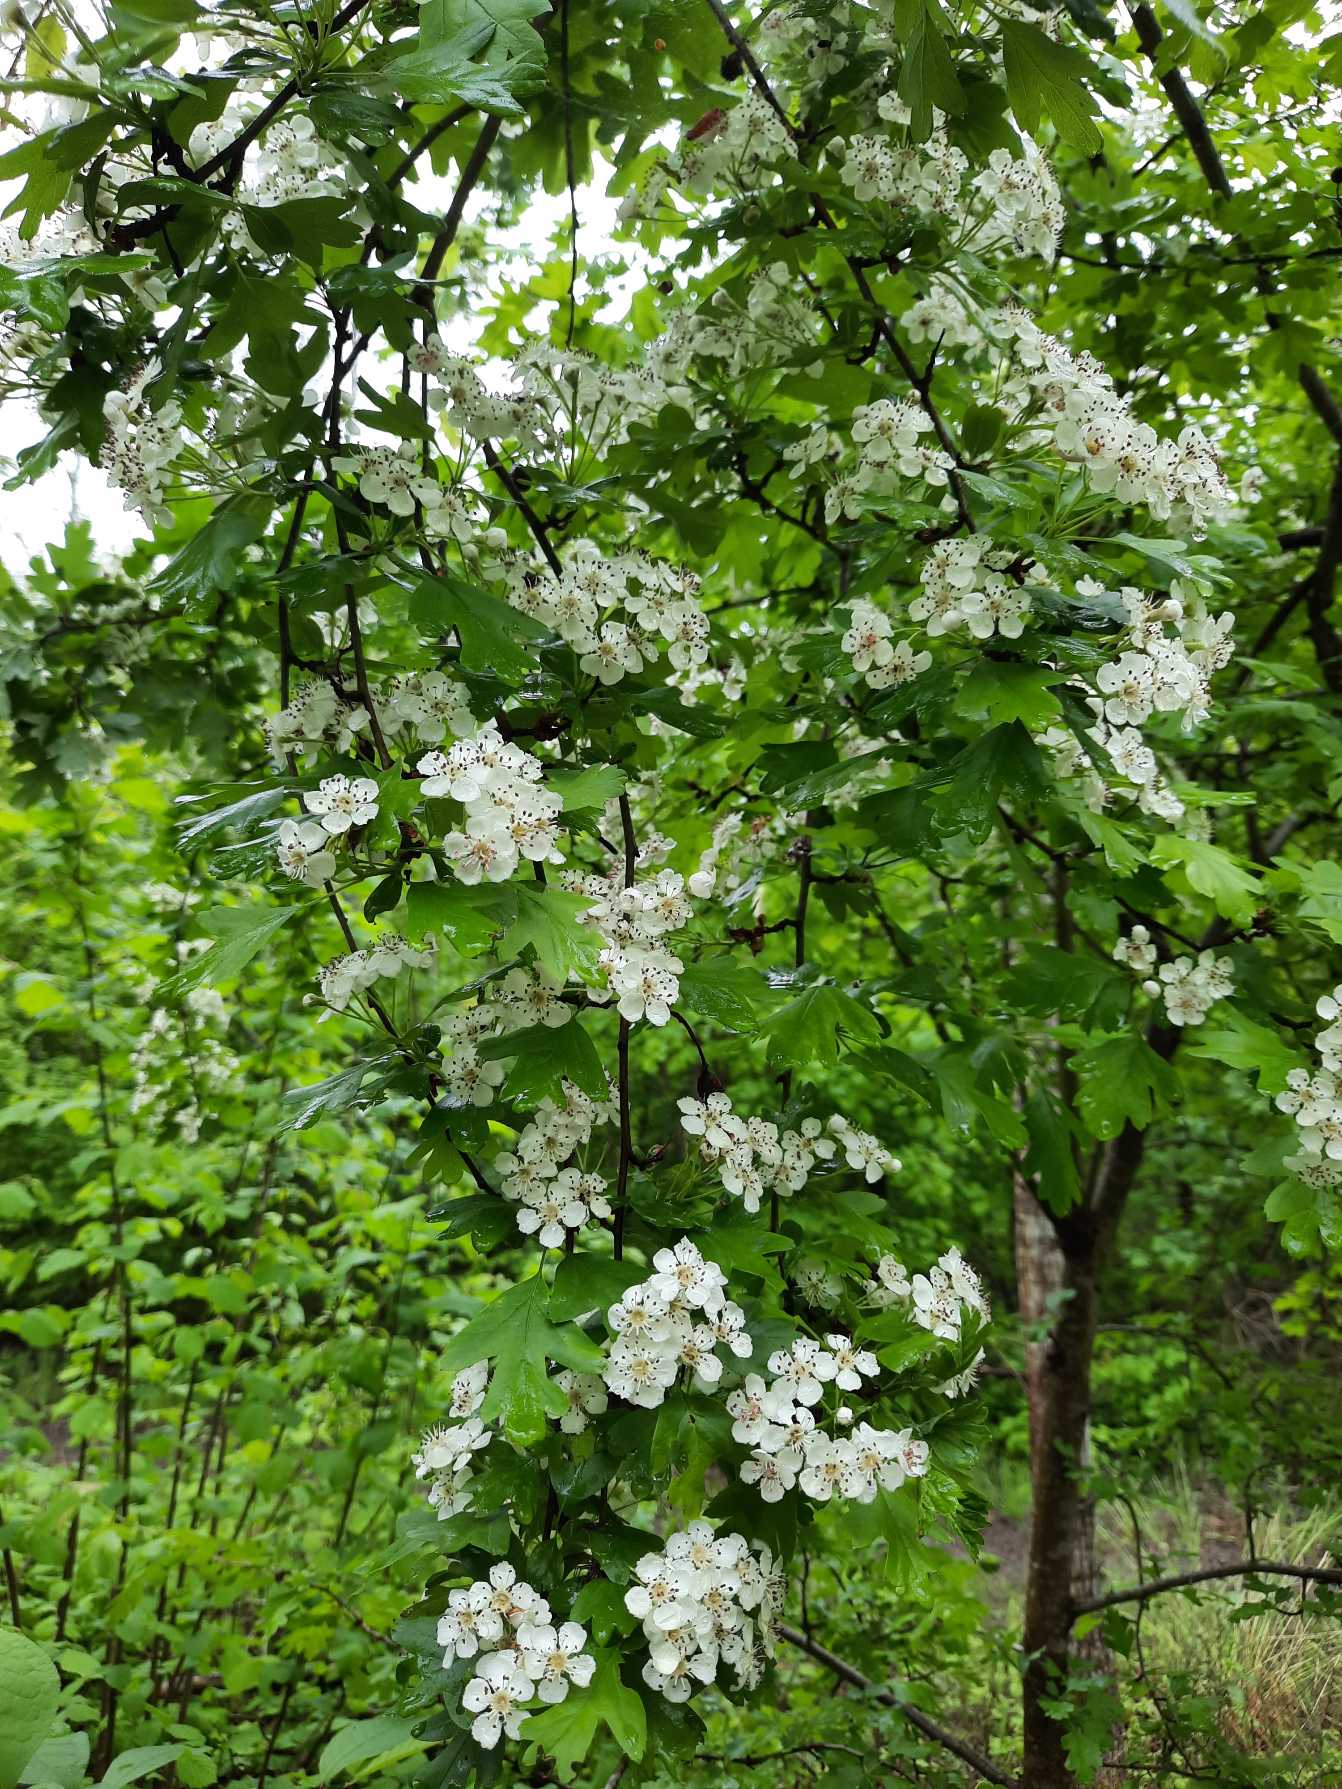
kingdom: Plantae
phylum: Tracheophyta
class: Magnoliopsida
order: Rosales
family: Rosaceae
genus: Crataegus
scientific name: Crataegus monogyna
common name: Engriflet hvidtjørn
